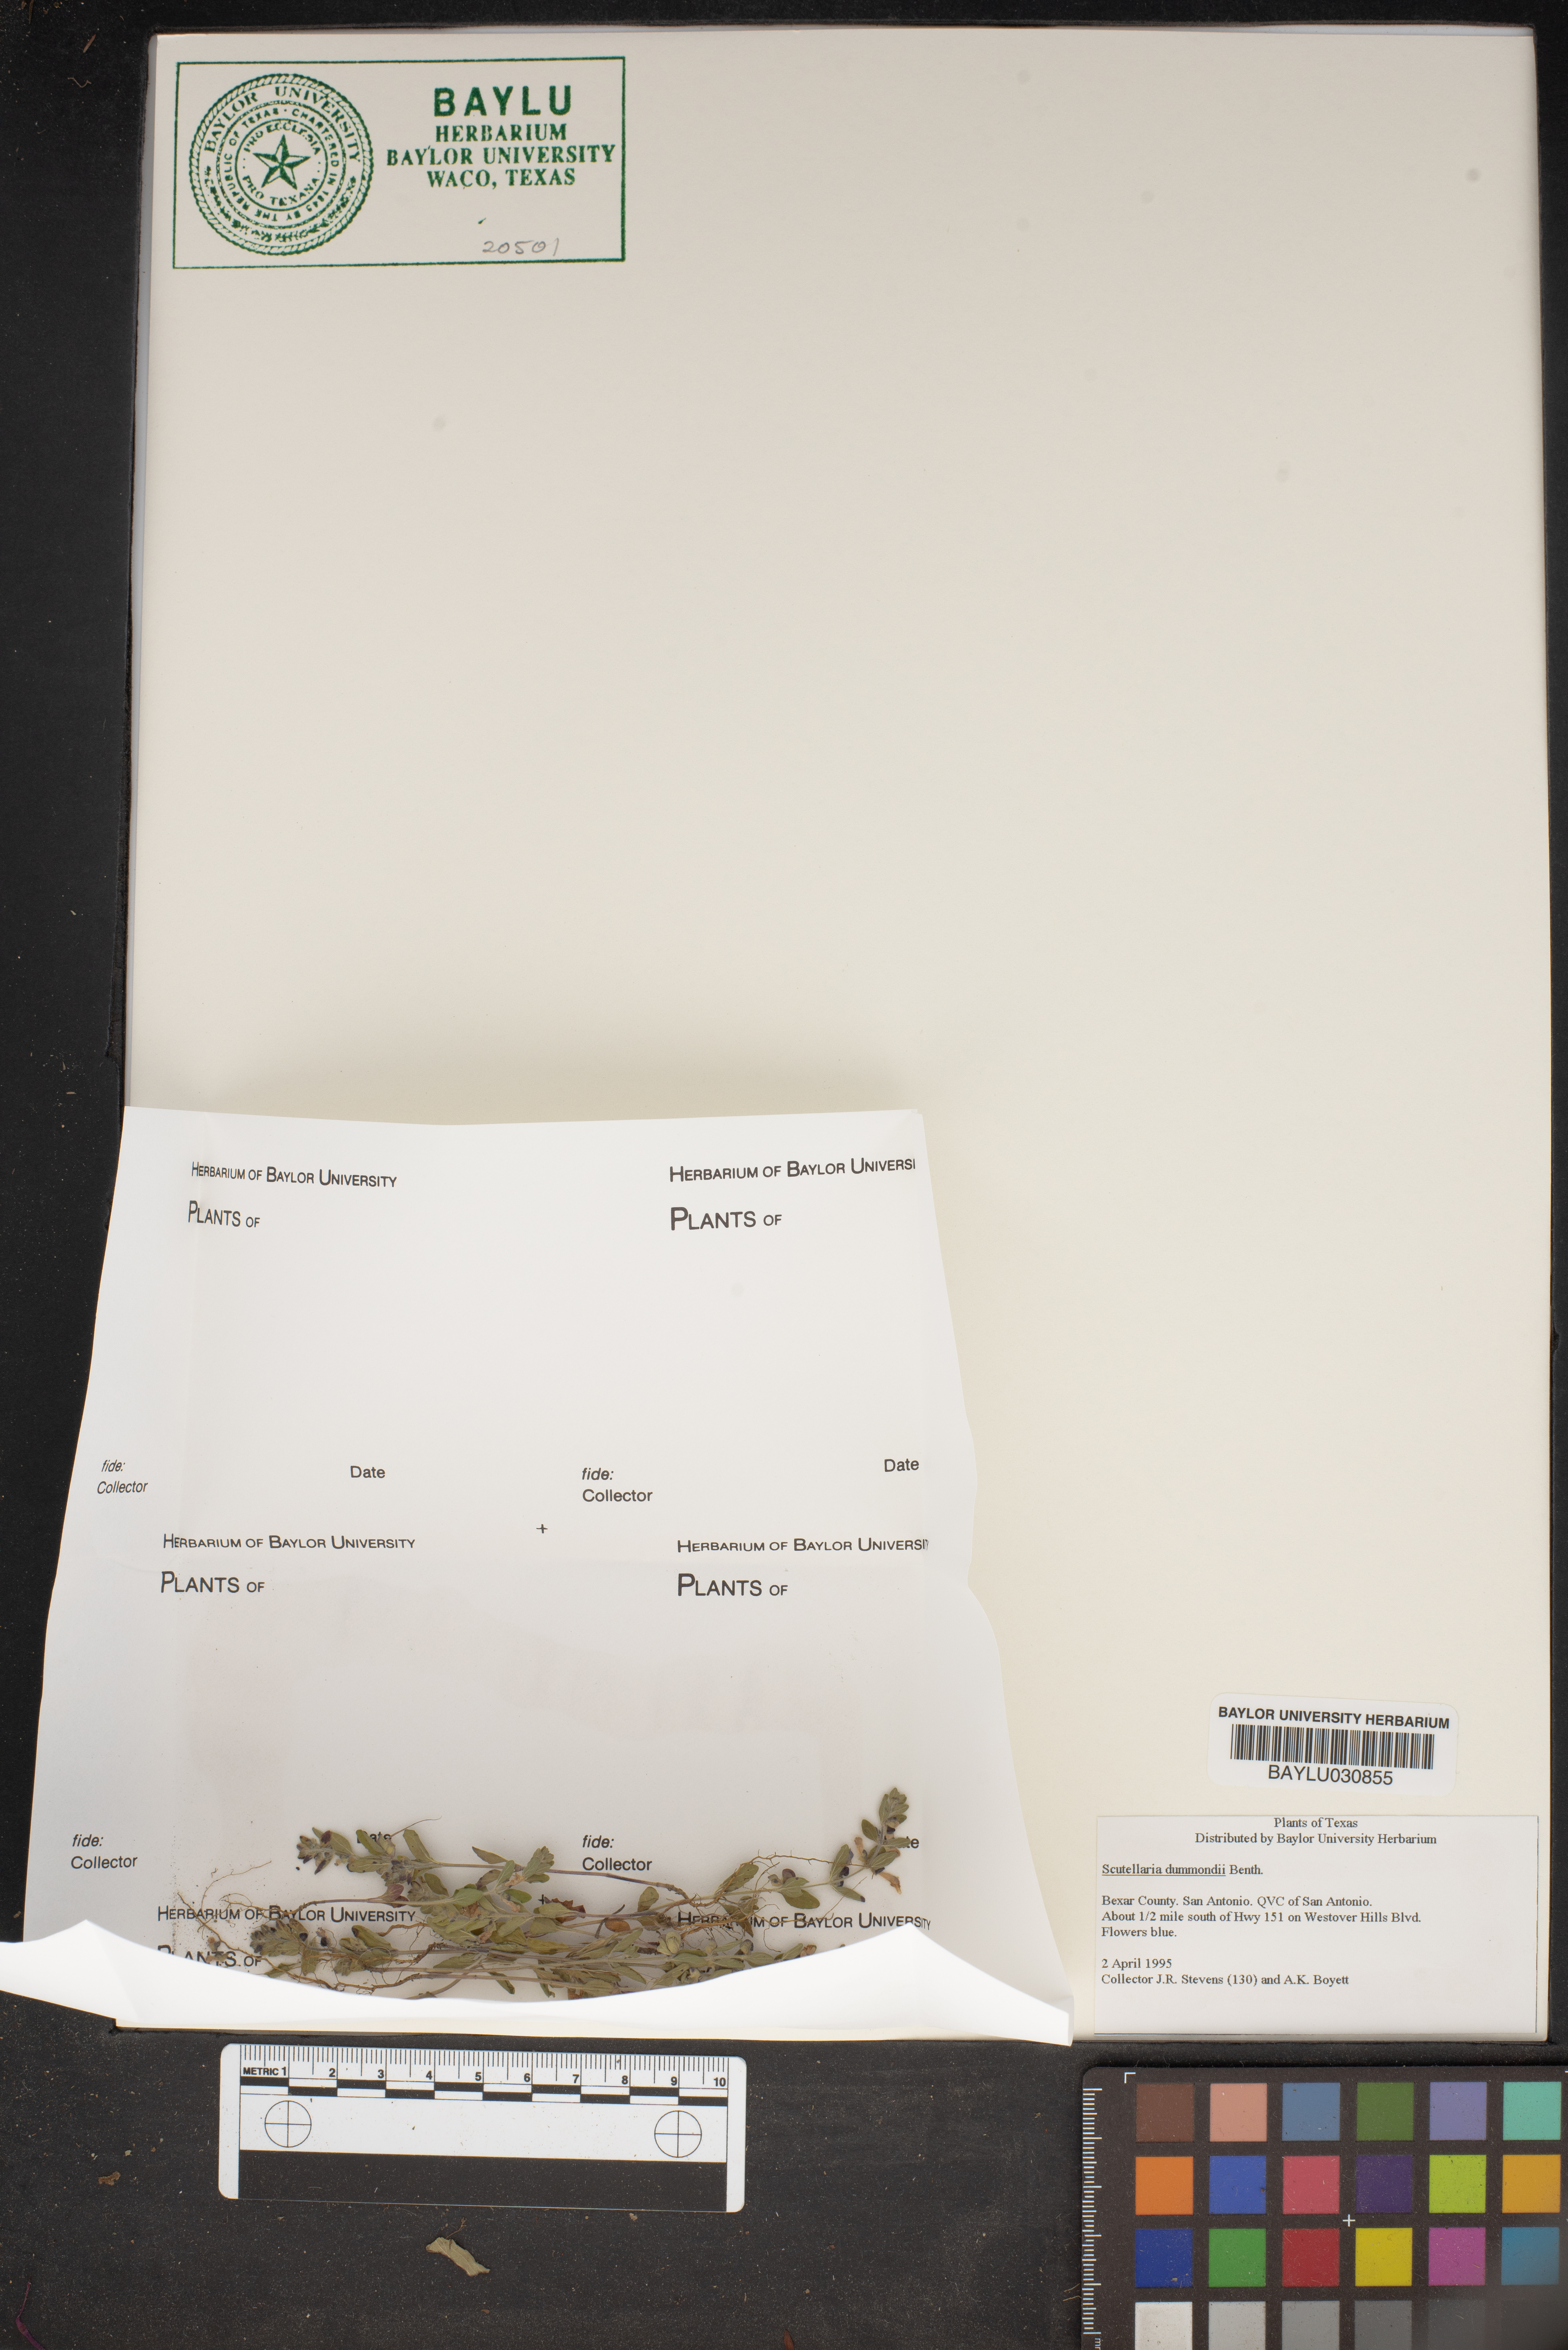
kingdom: Plantae
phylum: Tracheophyta
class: Magnoliopsida
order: Lamiales
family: Lamiaceae
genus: Scutellaria
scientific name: Scutellaria drummondii
